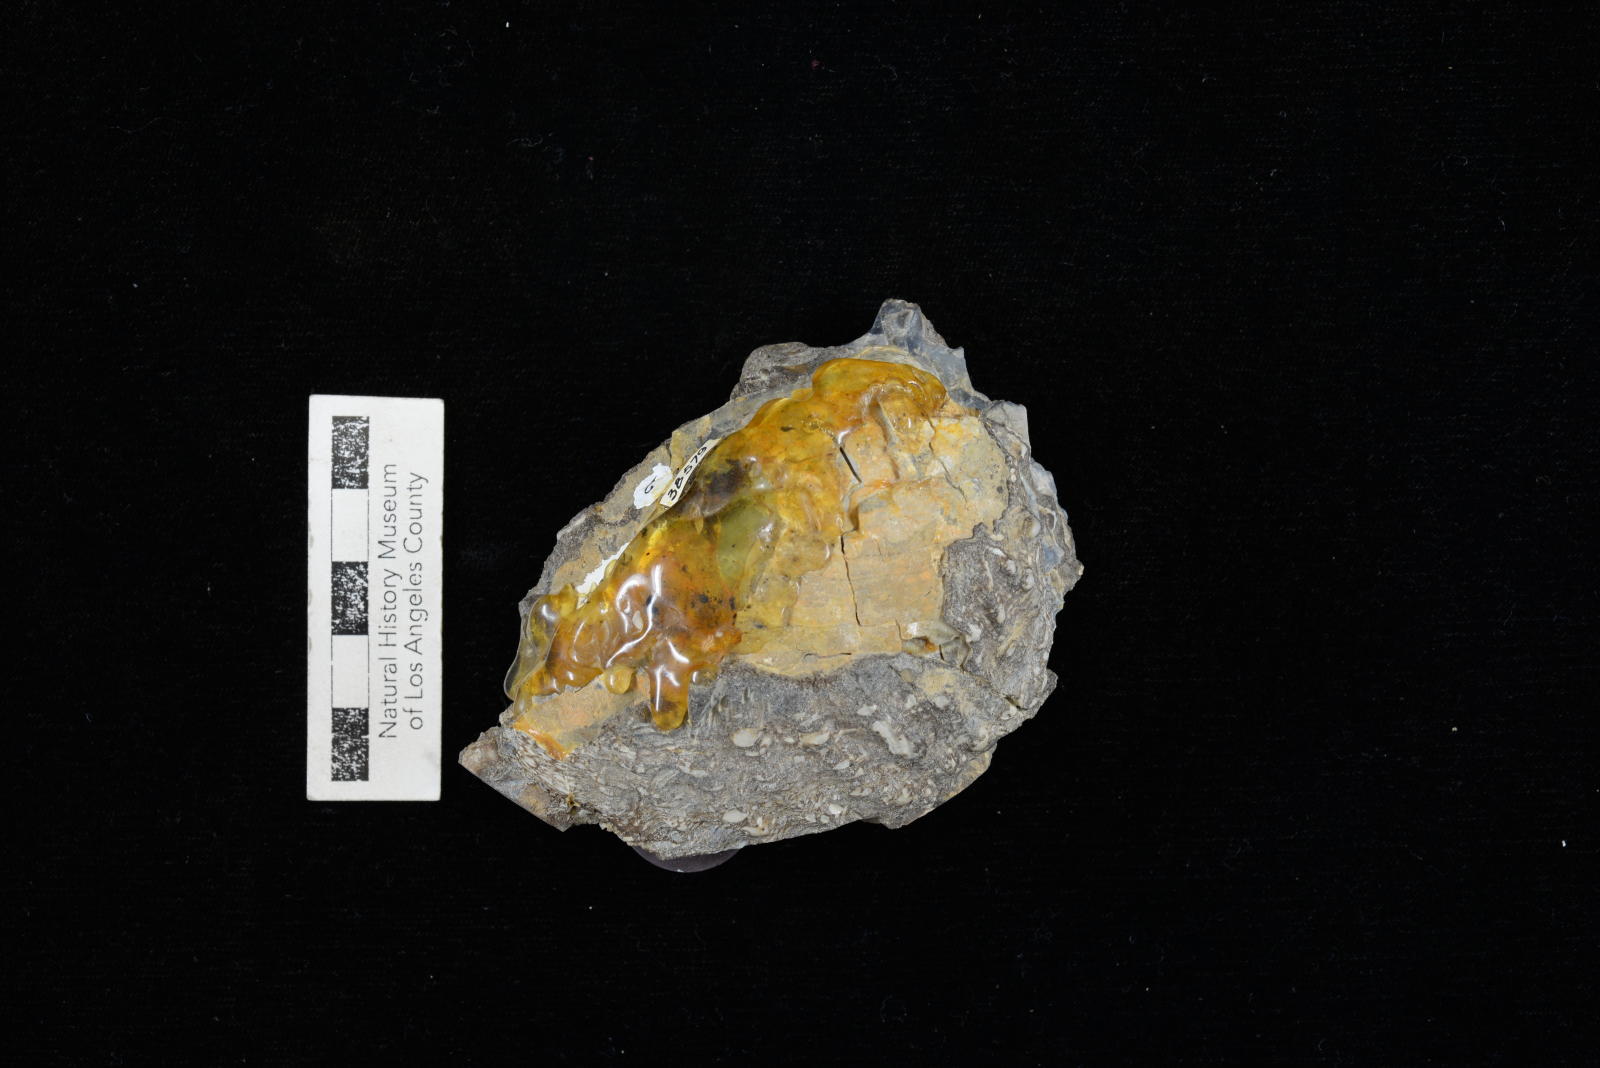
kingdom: Animalia
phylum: Mollusca
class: Bivalvia
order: Trigoniida
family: Steinmanellidae
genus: Yaadia
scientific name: Yaadia leana
